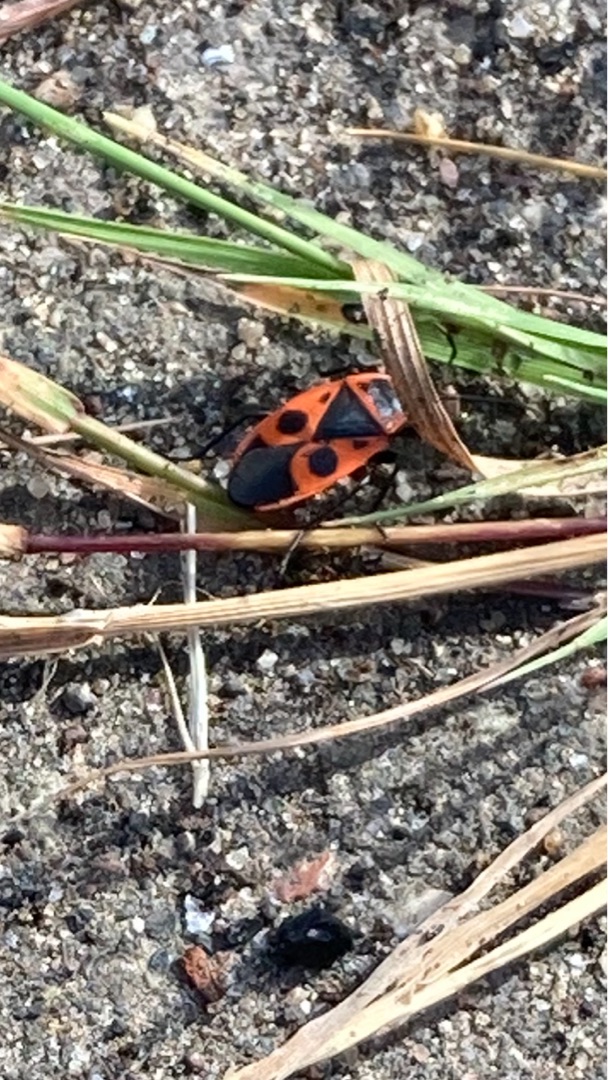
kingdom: Animalia
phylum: Arthropoda
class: Insecta
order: Hemiptera
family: Pyrrhocoridae
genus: Pyrrhocoris
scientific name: Pyrrhocoris apterus
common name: Ildtæge
